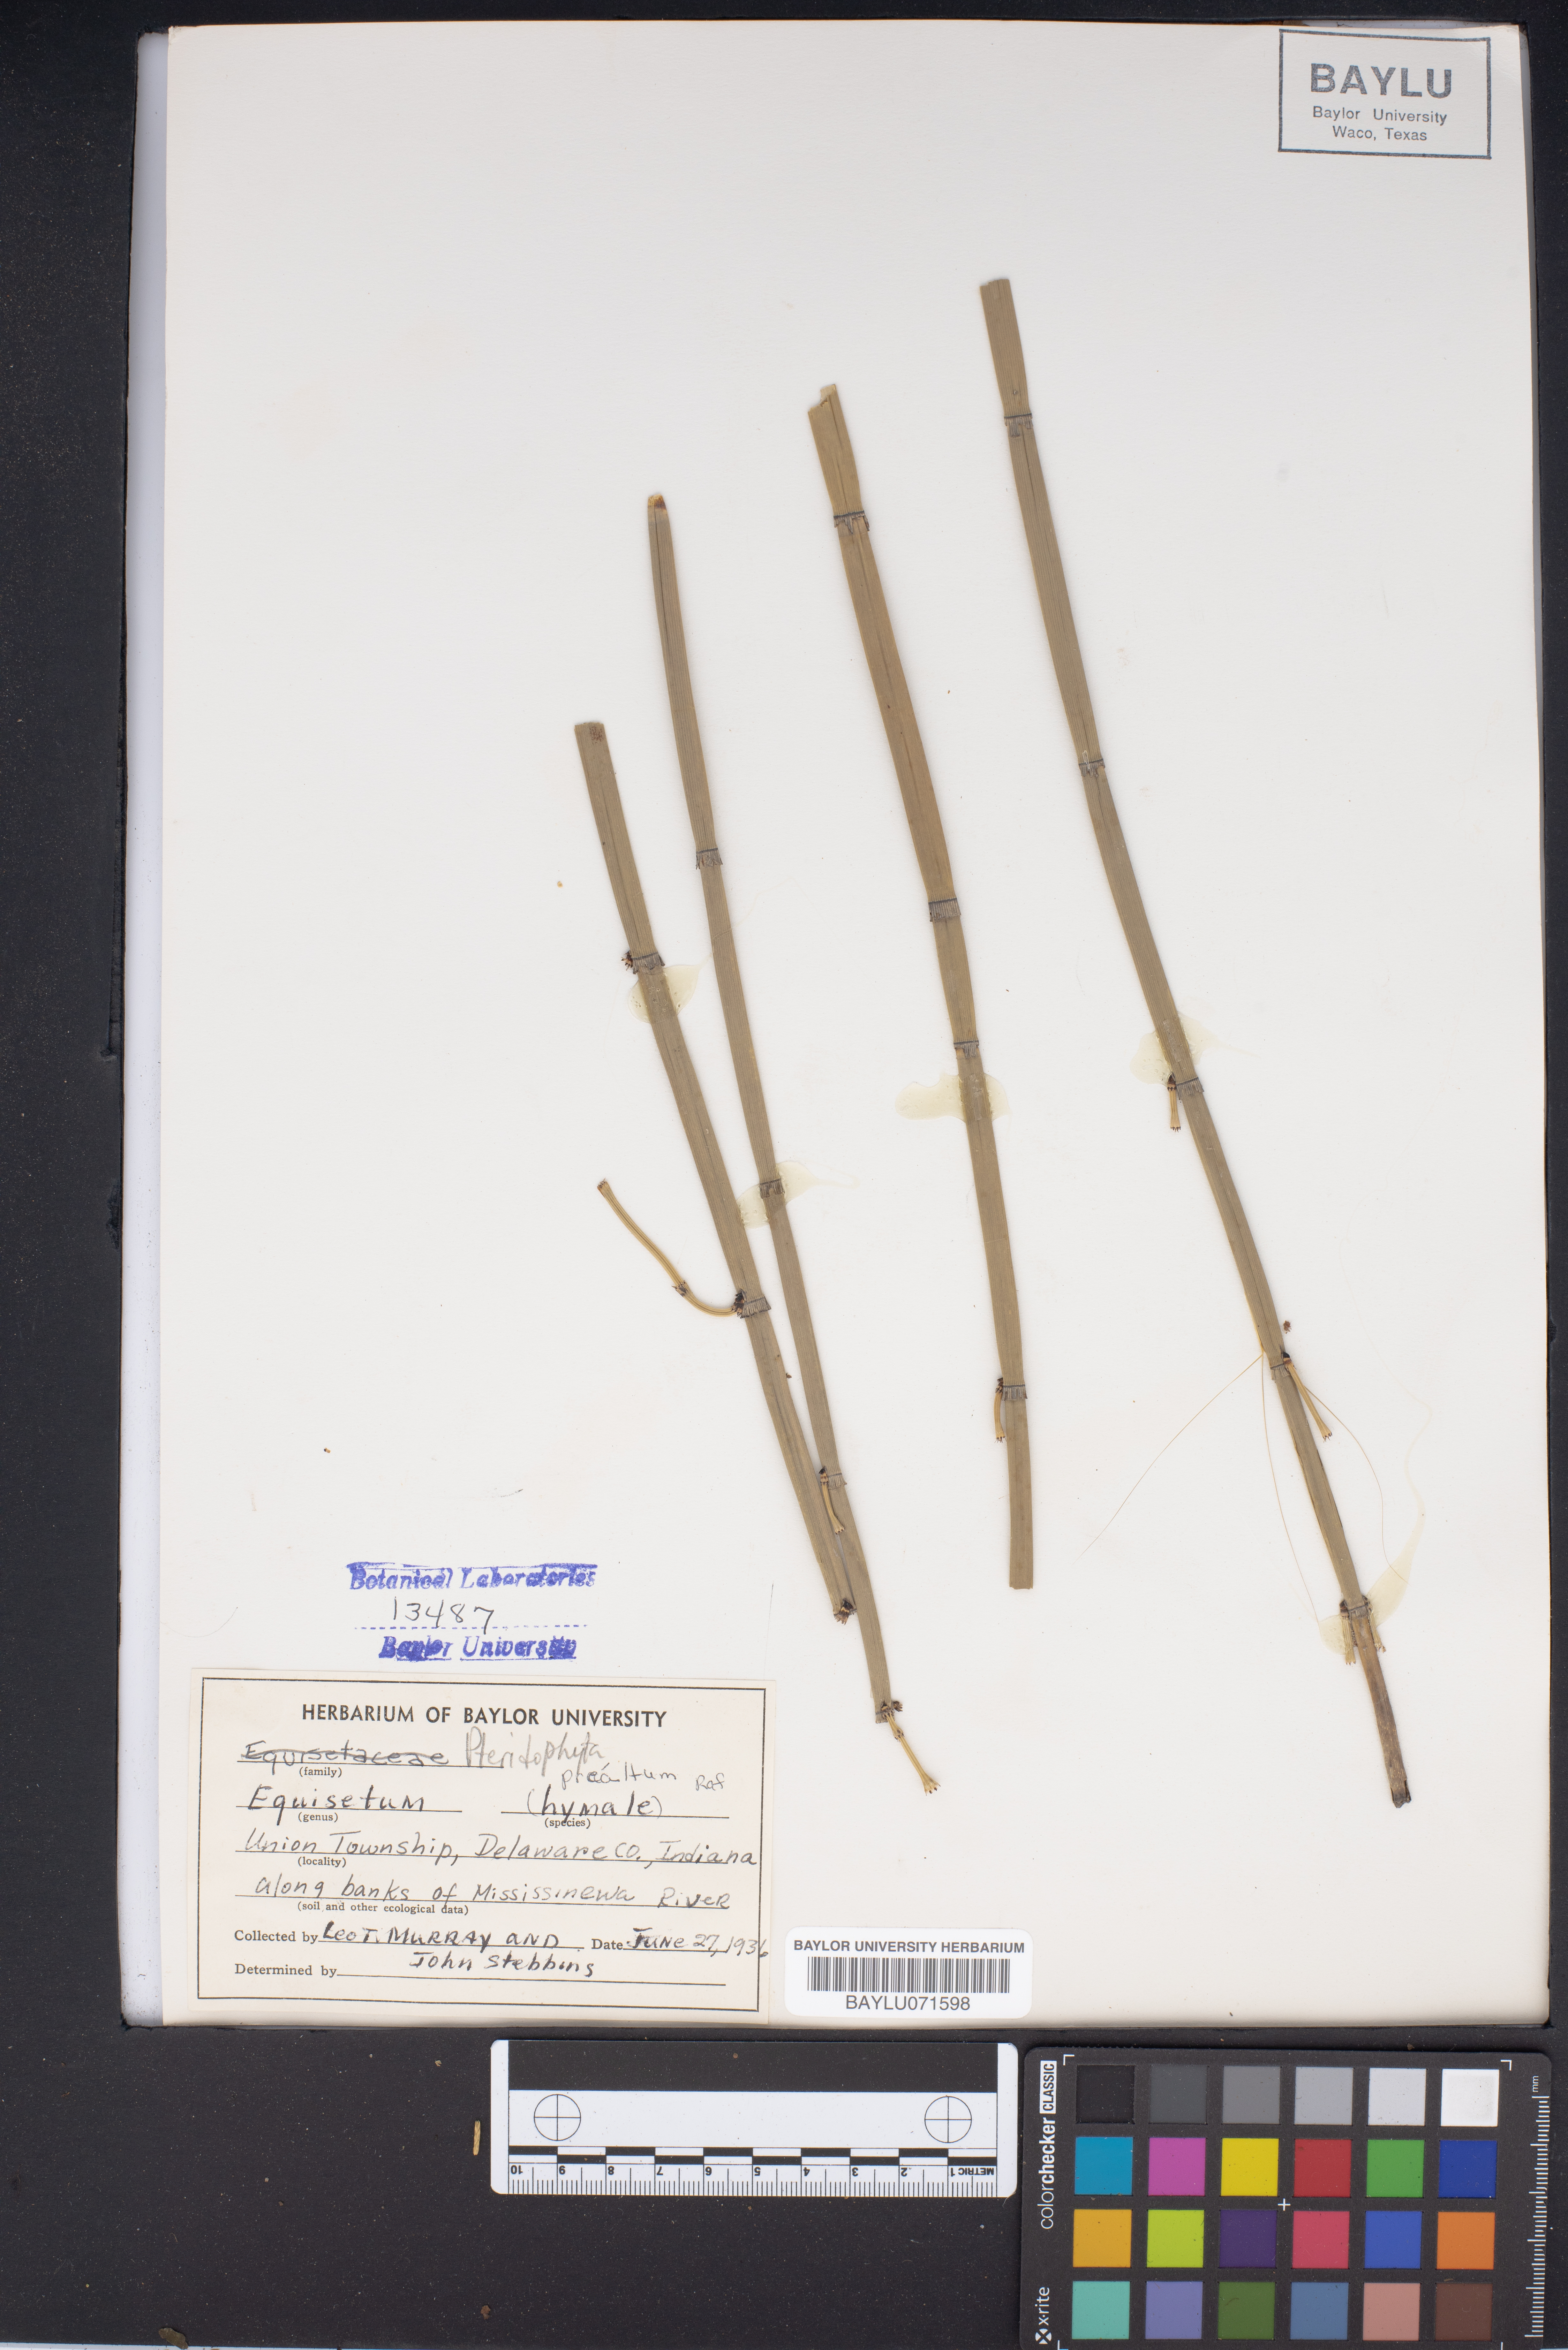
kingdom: Plantae
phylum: Tracheophyta
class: Polypodiopsida
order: Equisetales
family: Equisetaceae
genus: Equisetum
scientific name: Equisetum hyemale
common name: Rough horsetail
